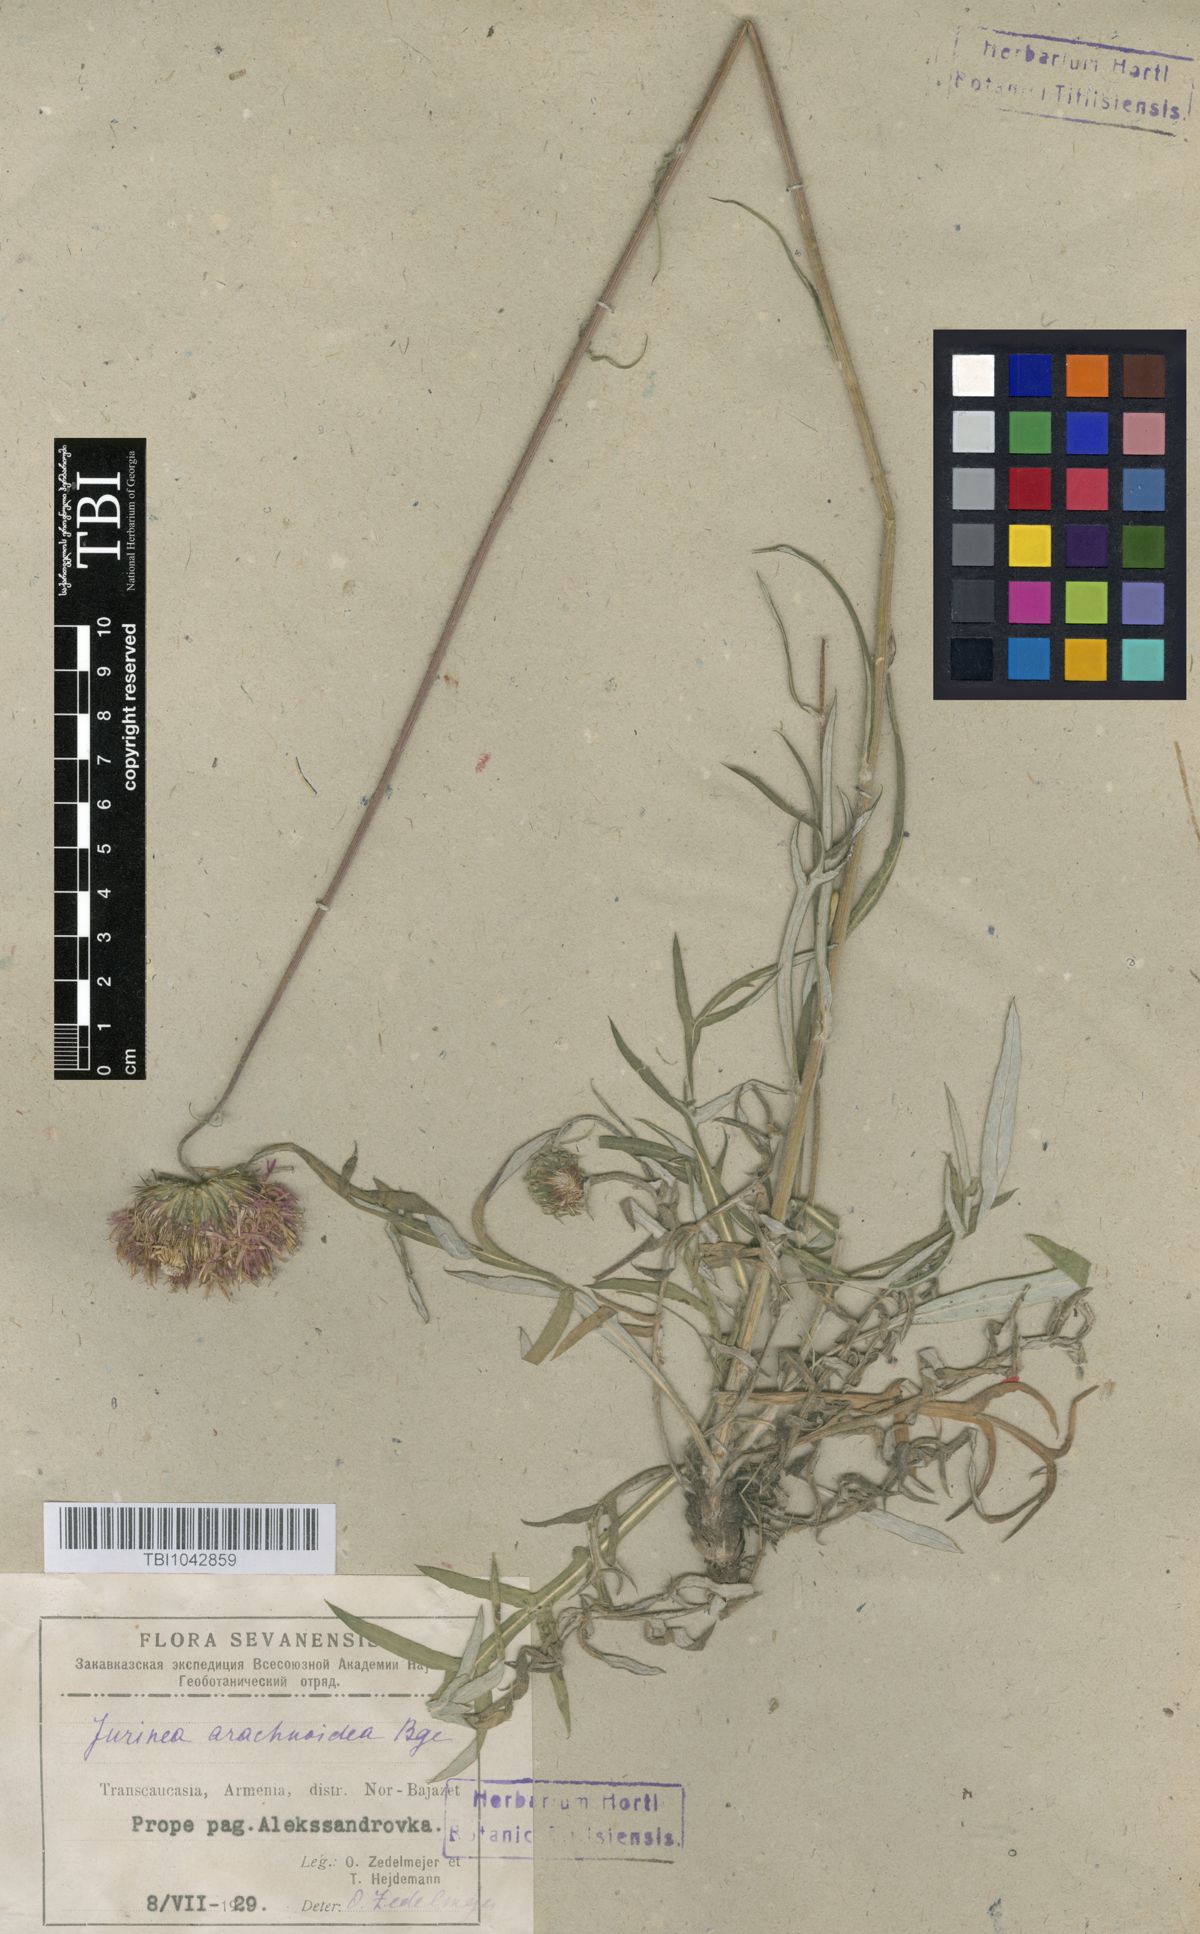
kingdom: Plantae
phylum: Tracheophyta
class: Magnoliopsida
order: Asterales
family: Asteraceae
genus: Jurinea
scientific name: Jurinea blanda
